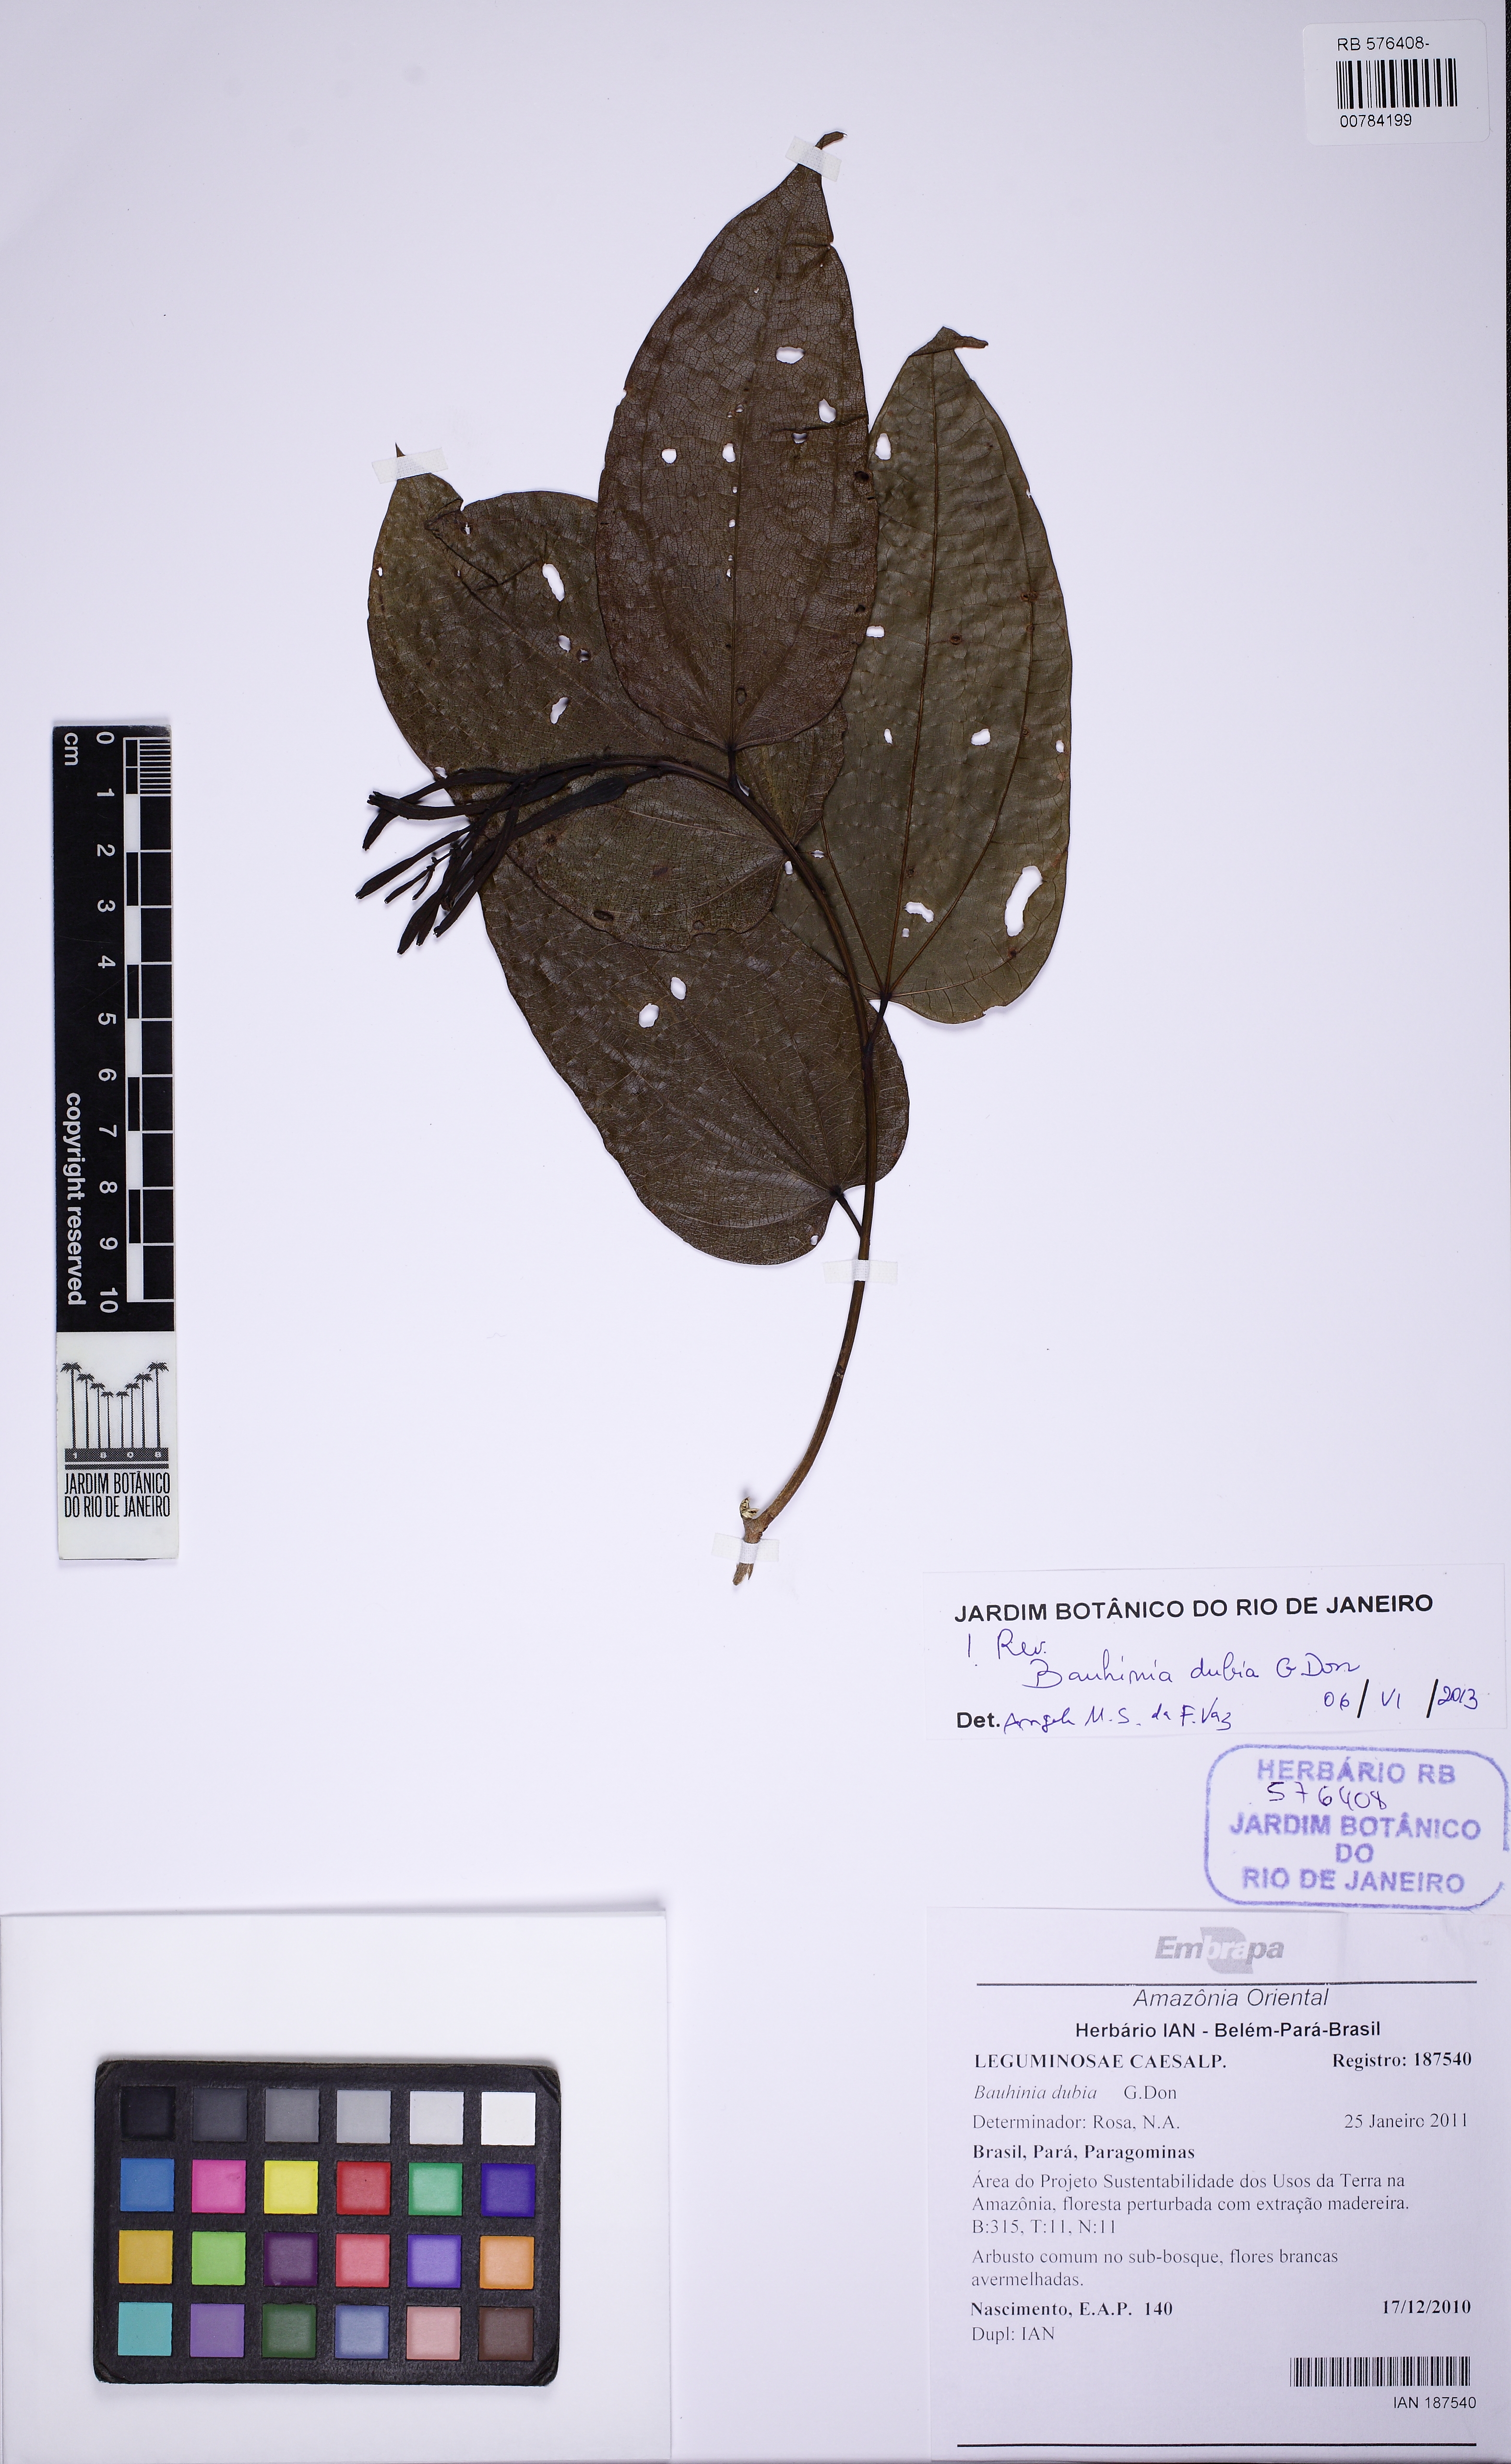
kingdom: Plantae
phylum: Tracheophyta
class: Magnoliopsida
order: Fabales
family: Fabaceae
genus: Bauhinia
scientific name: Bauhinia dubia
